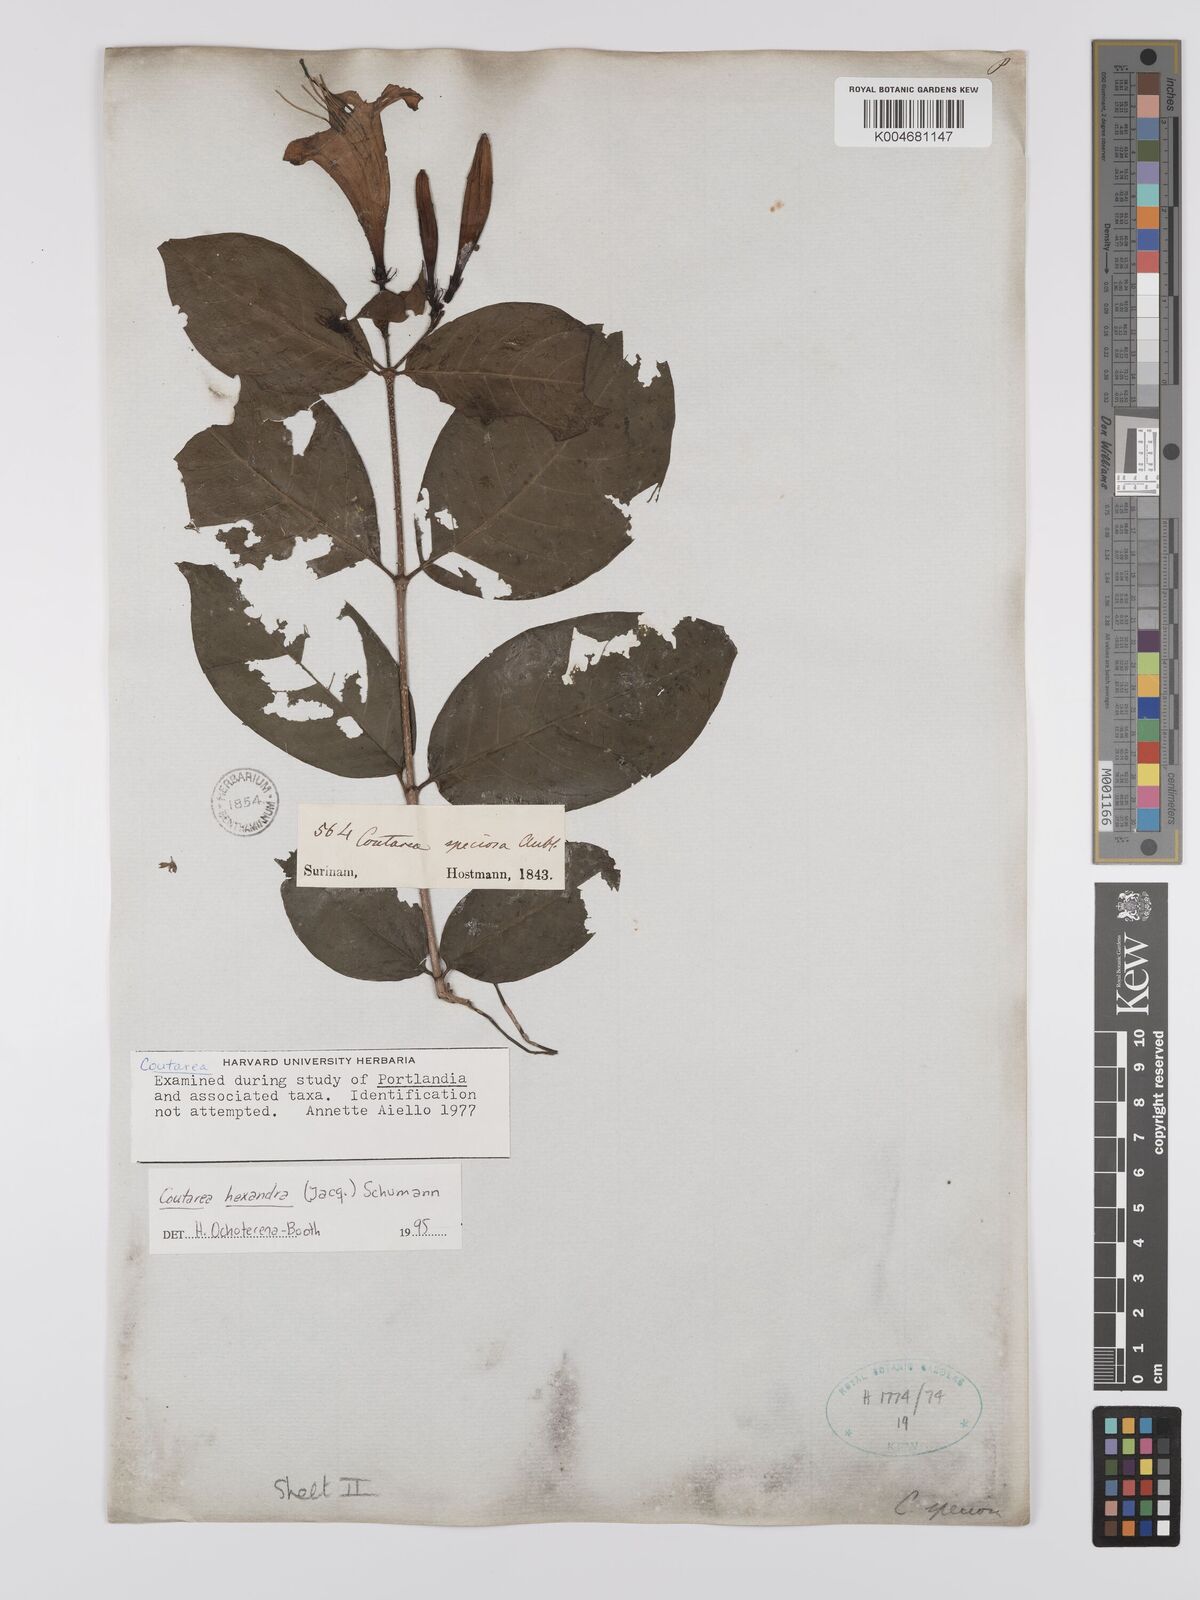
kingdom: Plantae
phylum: Tracheophyta
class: Magnoliopsida
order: Gentianales
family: Rubiaceae
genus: Coutarea
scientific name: Coutarea hexandra
